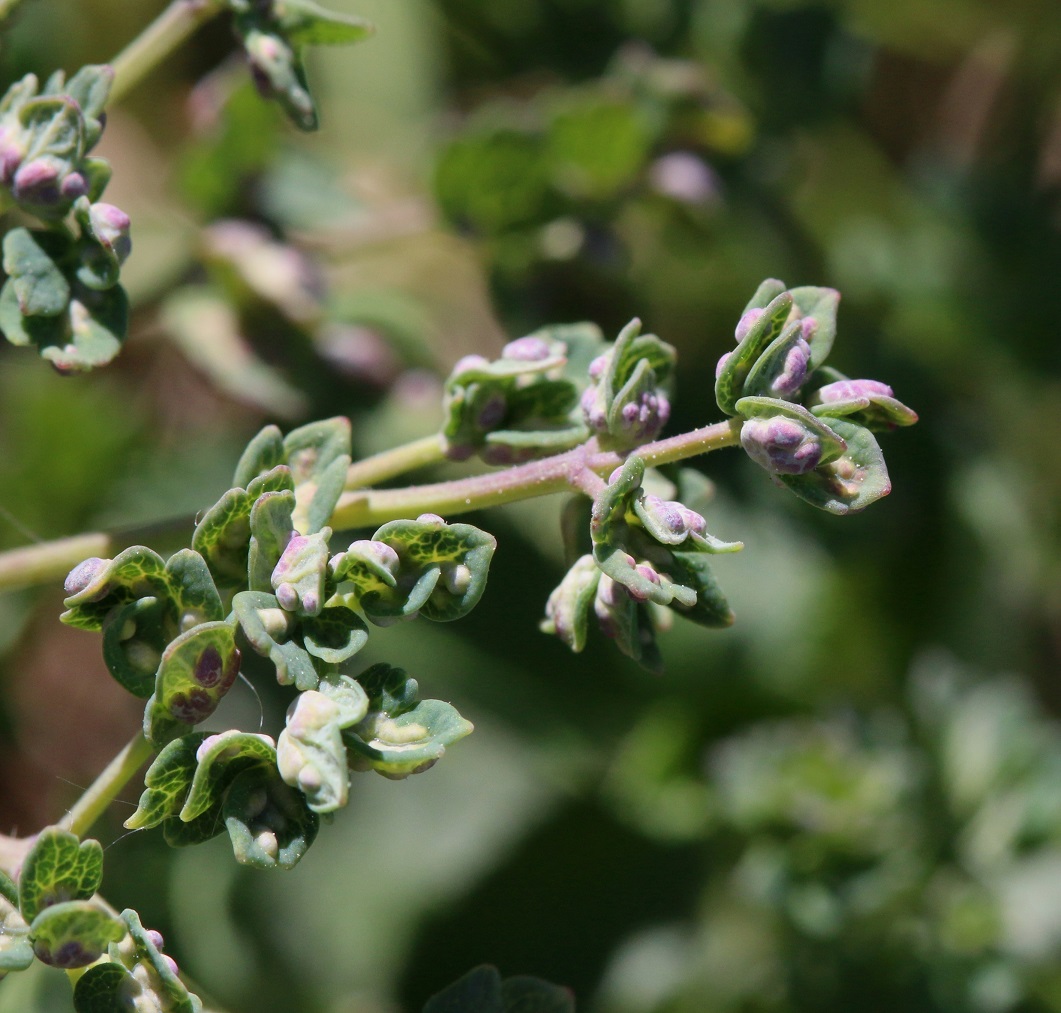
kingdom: Fungi
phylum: Basidiomycota
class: Ustilaginomycetes
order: Urocystidales
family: Urocystidaceae
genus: Urocystis
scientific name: Urocystis sorosporioides
